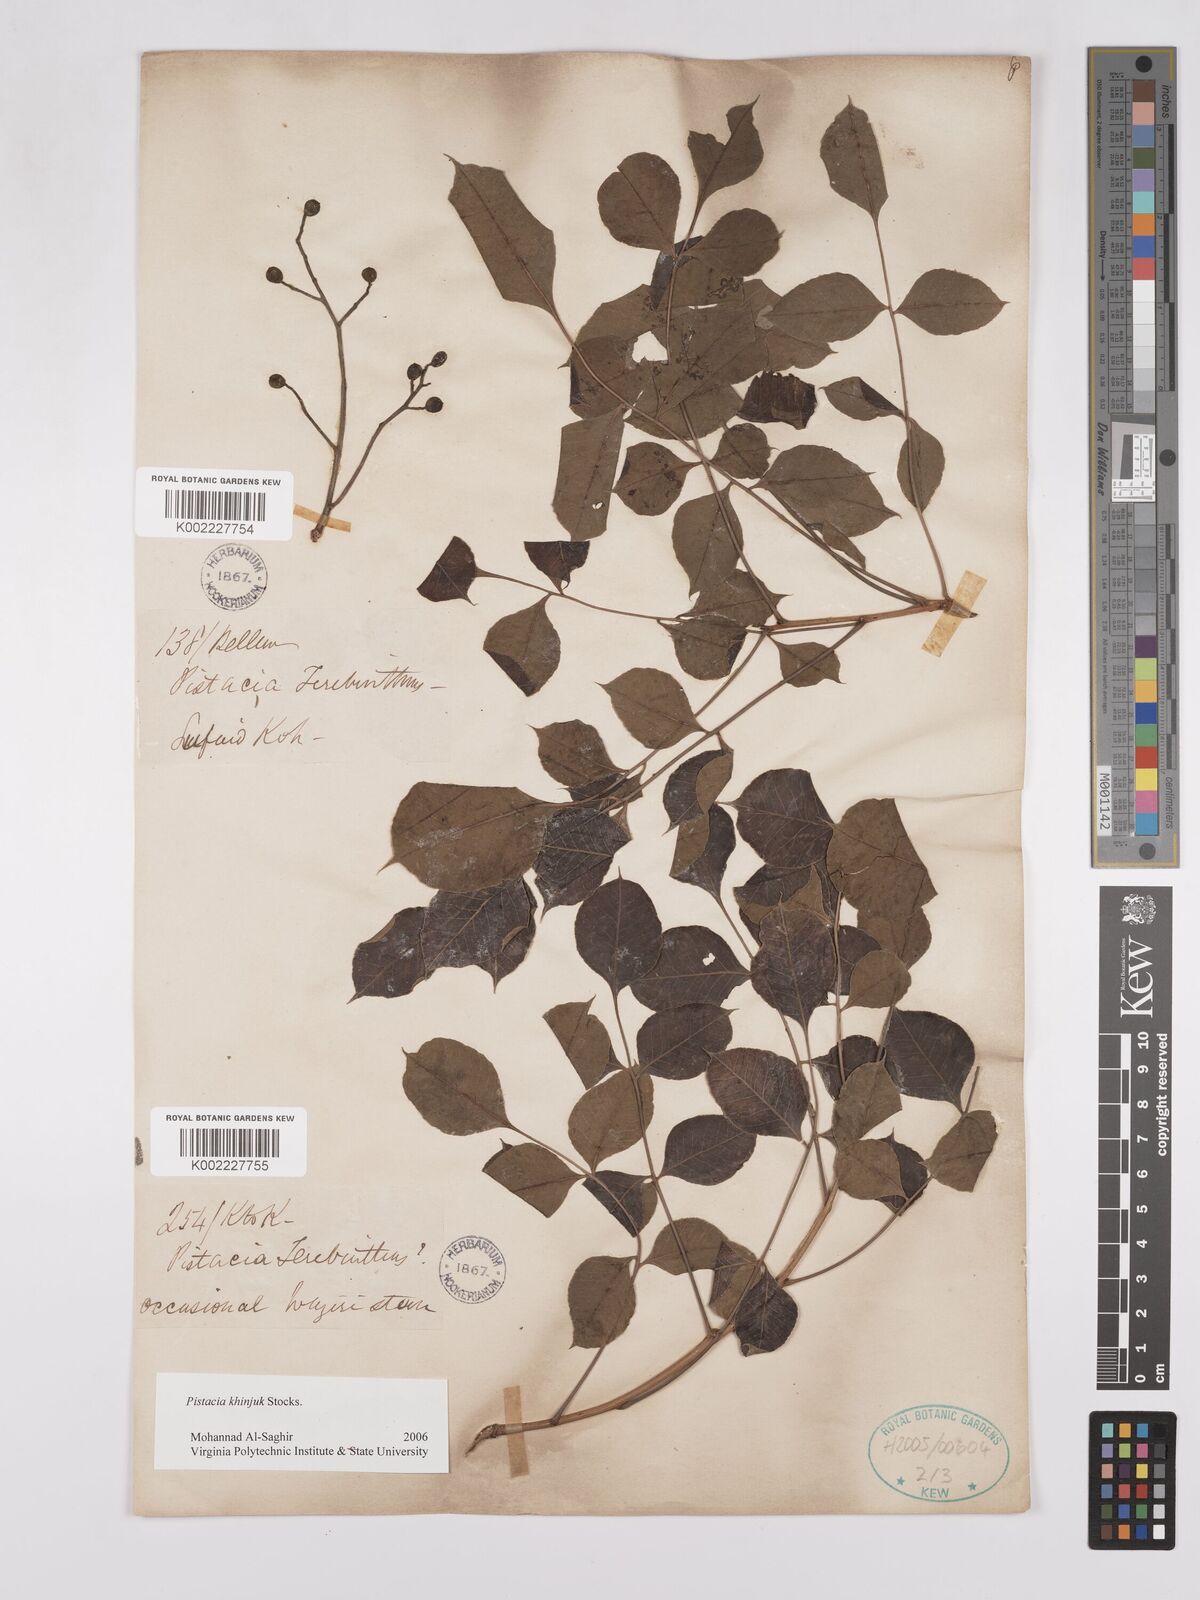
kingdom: Plantae
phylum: Tracheophyta
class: Magnoliopsida
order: Sapindales
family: Anacardiaceae
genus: Pistacia
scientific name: Pistacia
